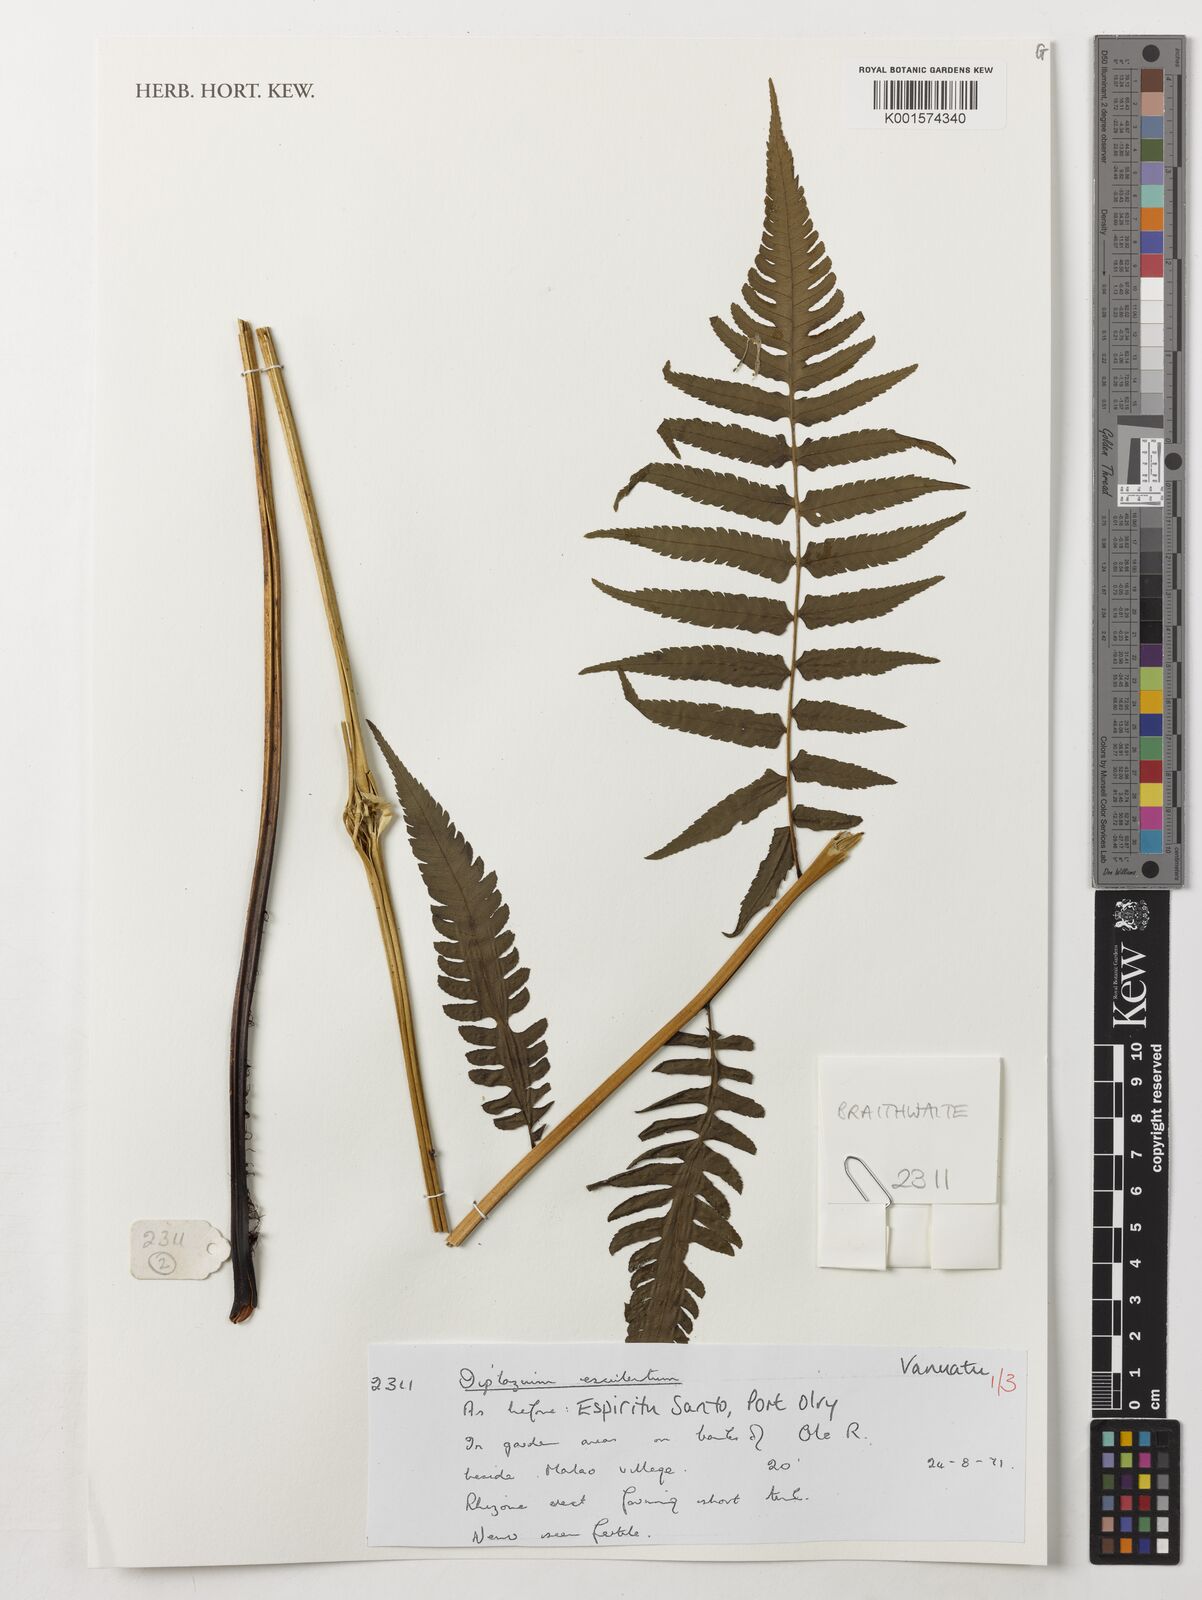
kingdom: Plantae
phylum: Tracheophyta
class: Polypodiopsida
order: Polypodiales
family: Athyriaceae
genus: Diplazium
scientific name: Diplazium esculentum
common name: Vegetable fern
